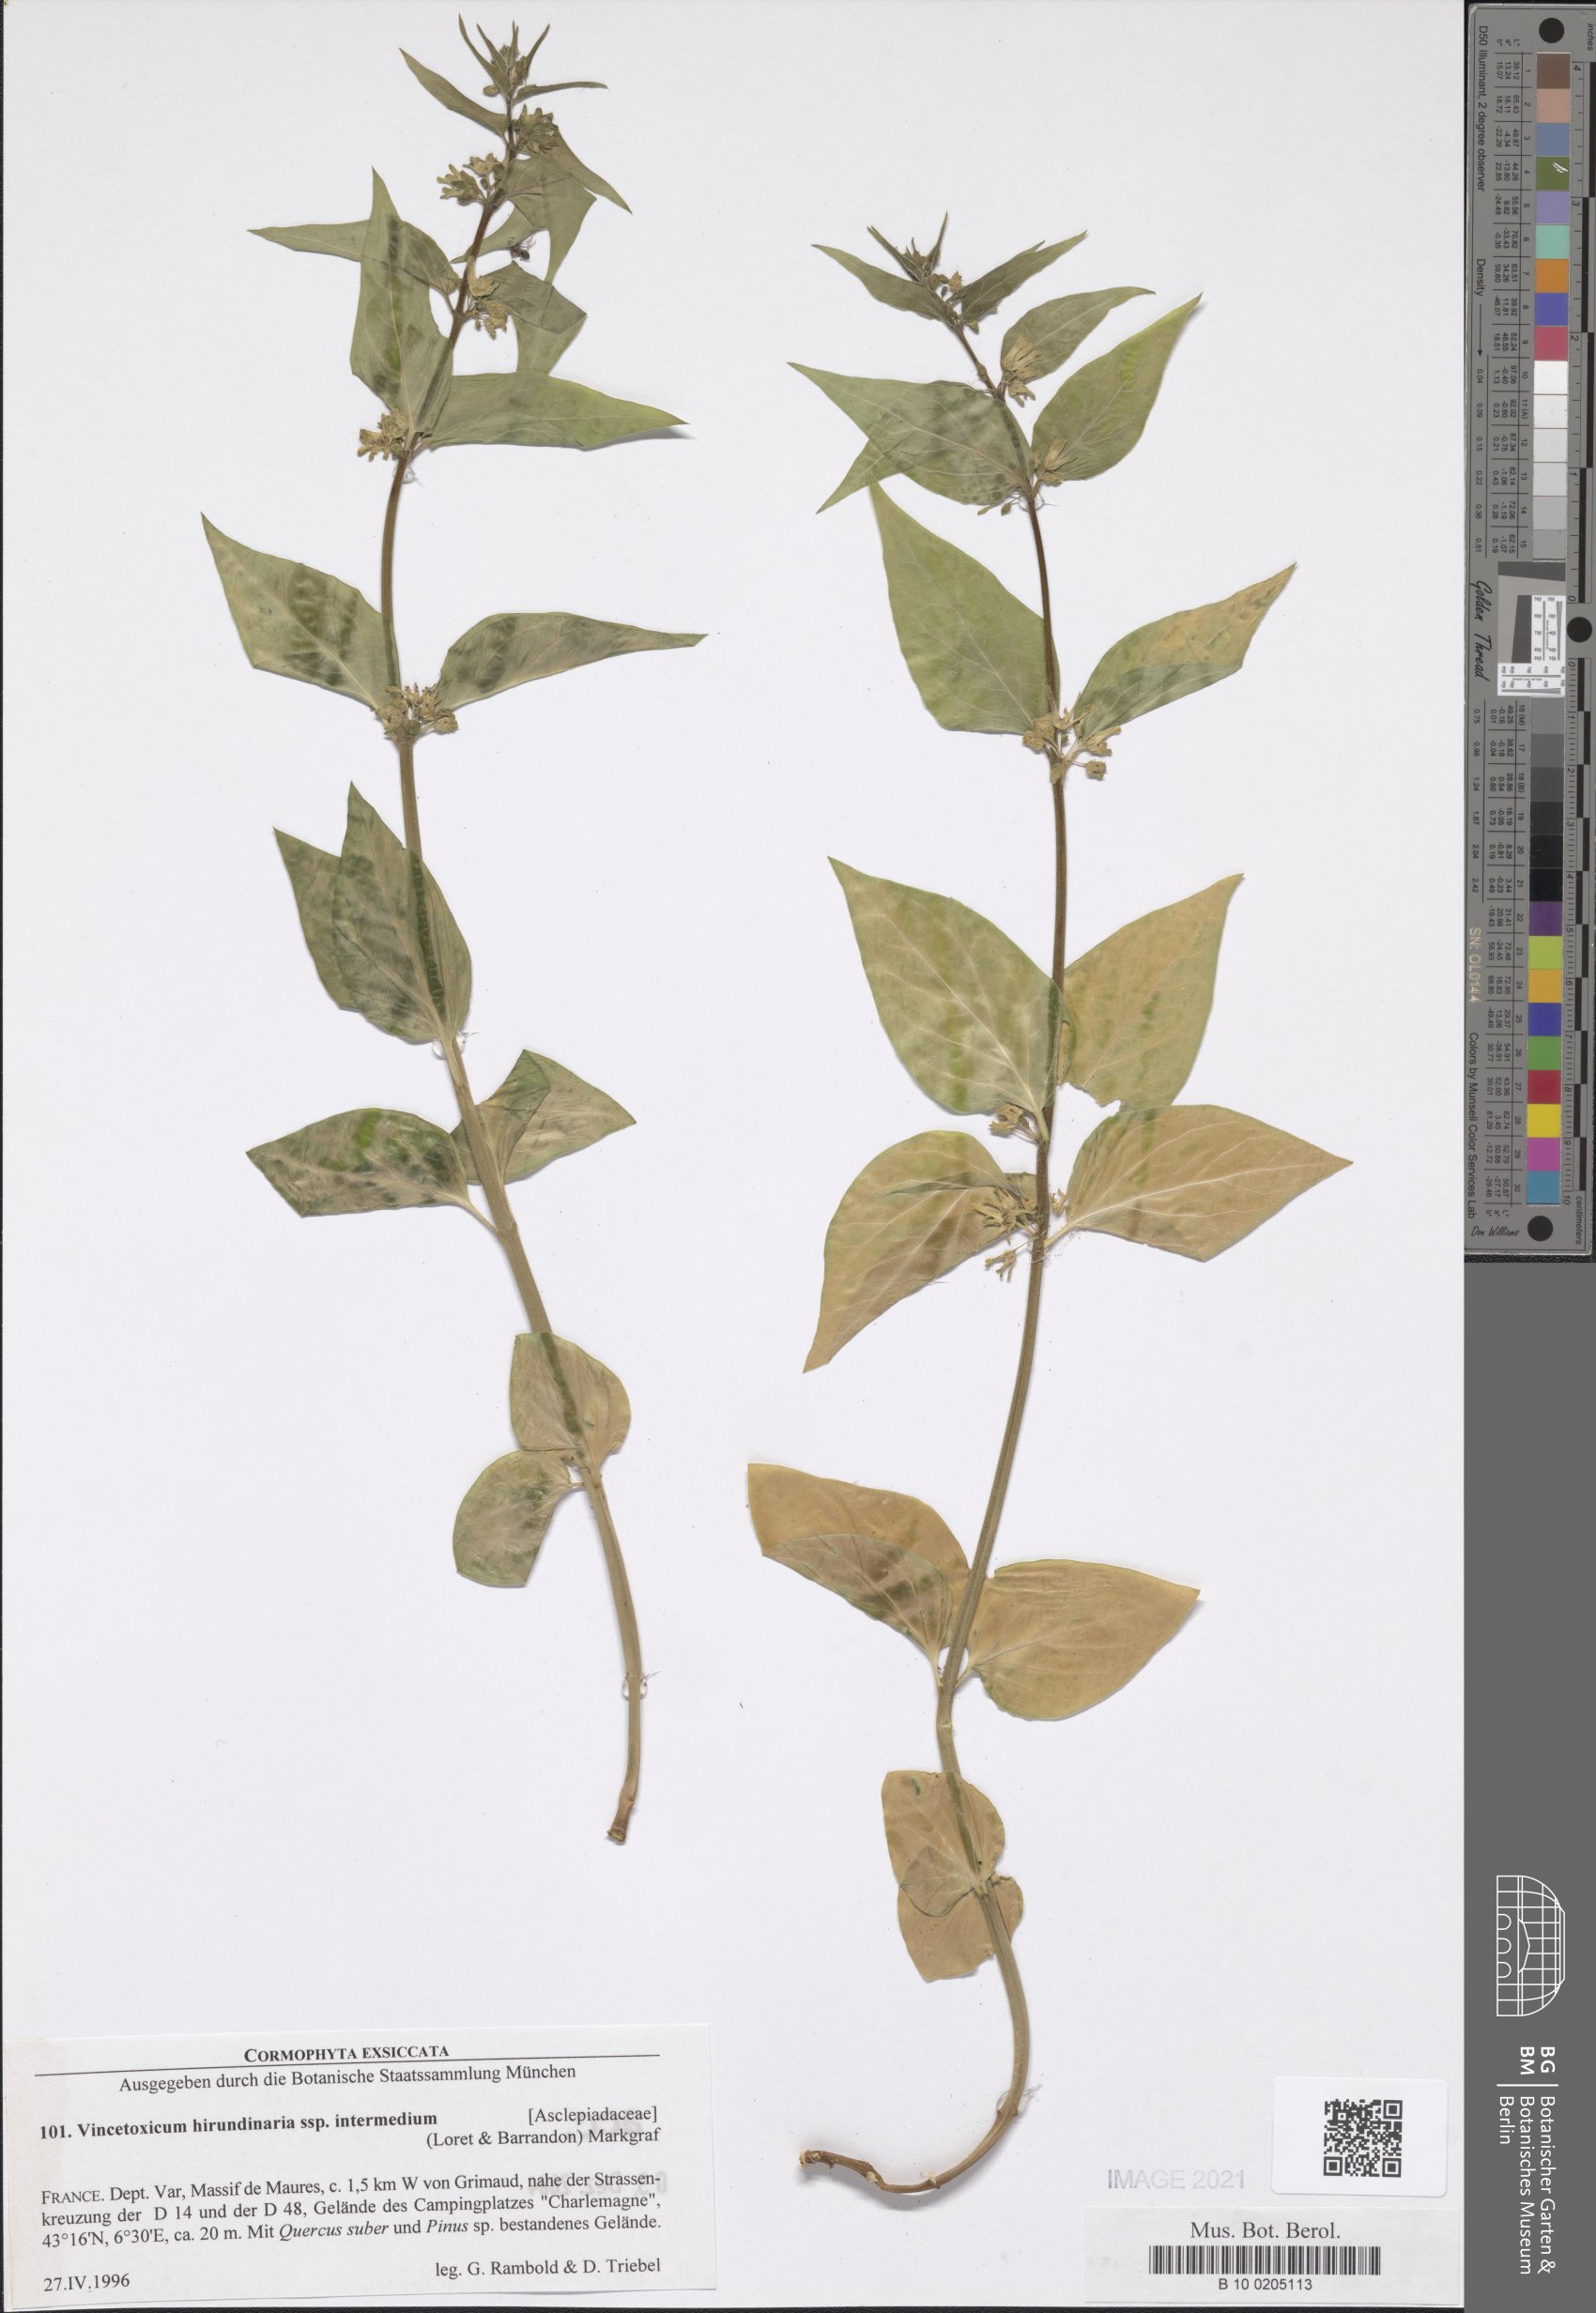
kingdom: Plantae
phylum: Tracheophyta
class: Magnoliopsida
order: Gentianales
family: Apocynaceae
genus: Vincetoxicum
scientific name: Vincetoxicum hirundinaria
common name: White swallowwort
